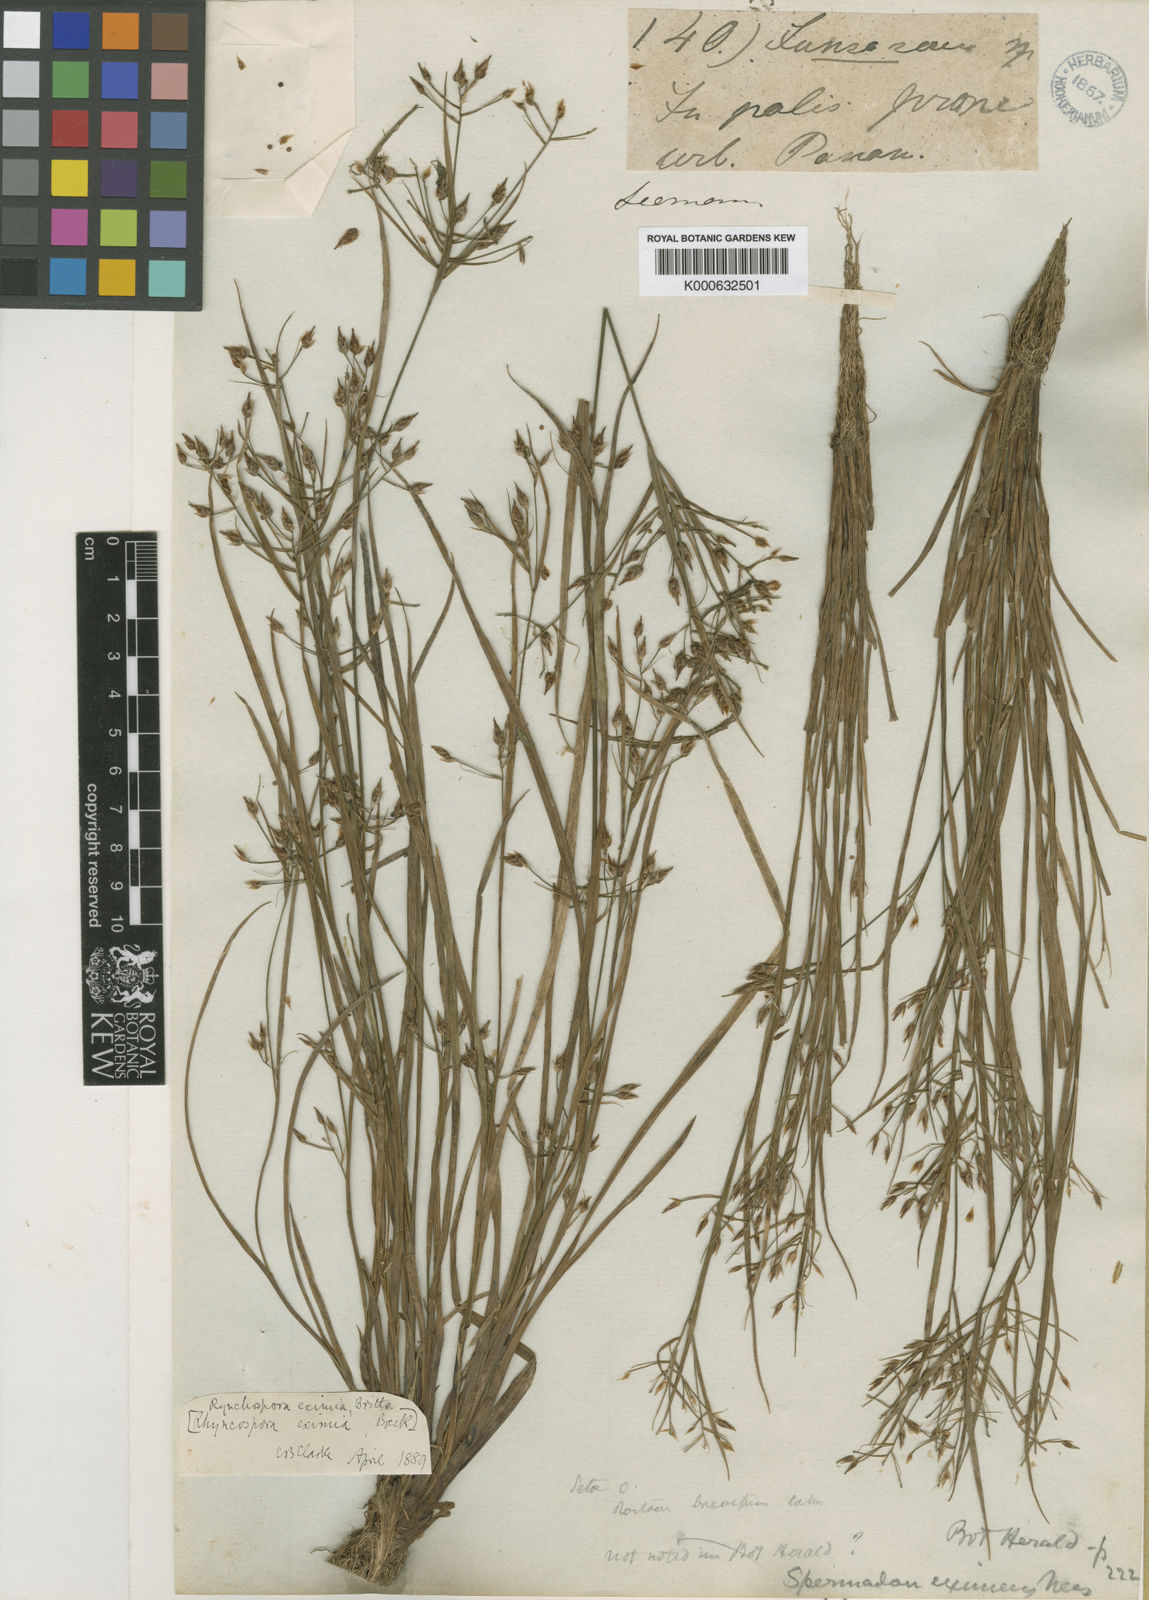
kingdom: Plantae
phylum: Tracheophyta
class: Liliopsida
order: Poales
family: Cyperaceae
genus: Rhynchospora
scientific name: Rhynchospora eximia
